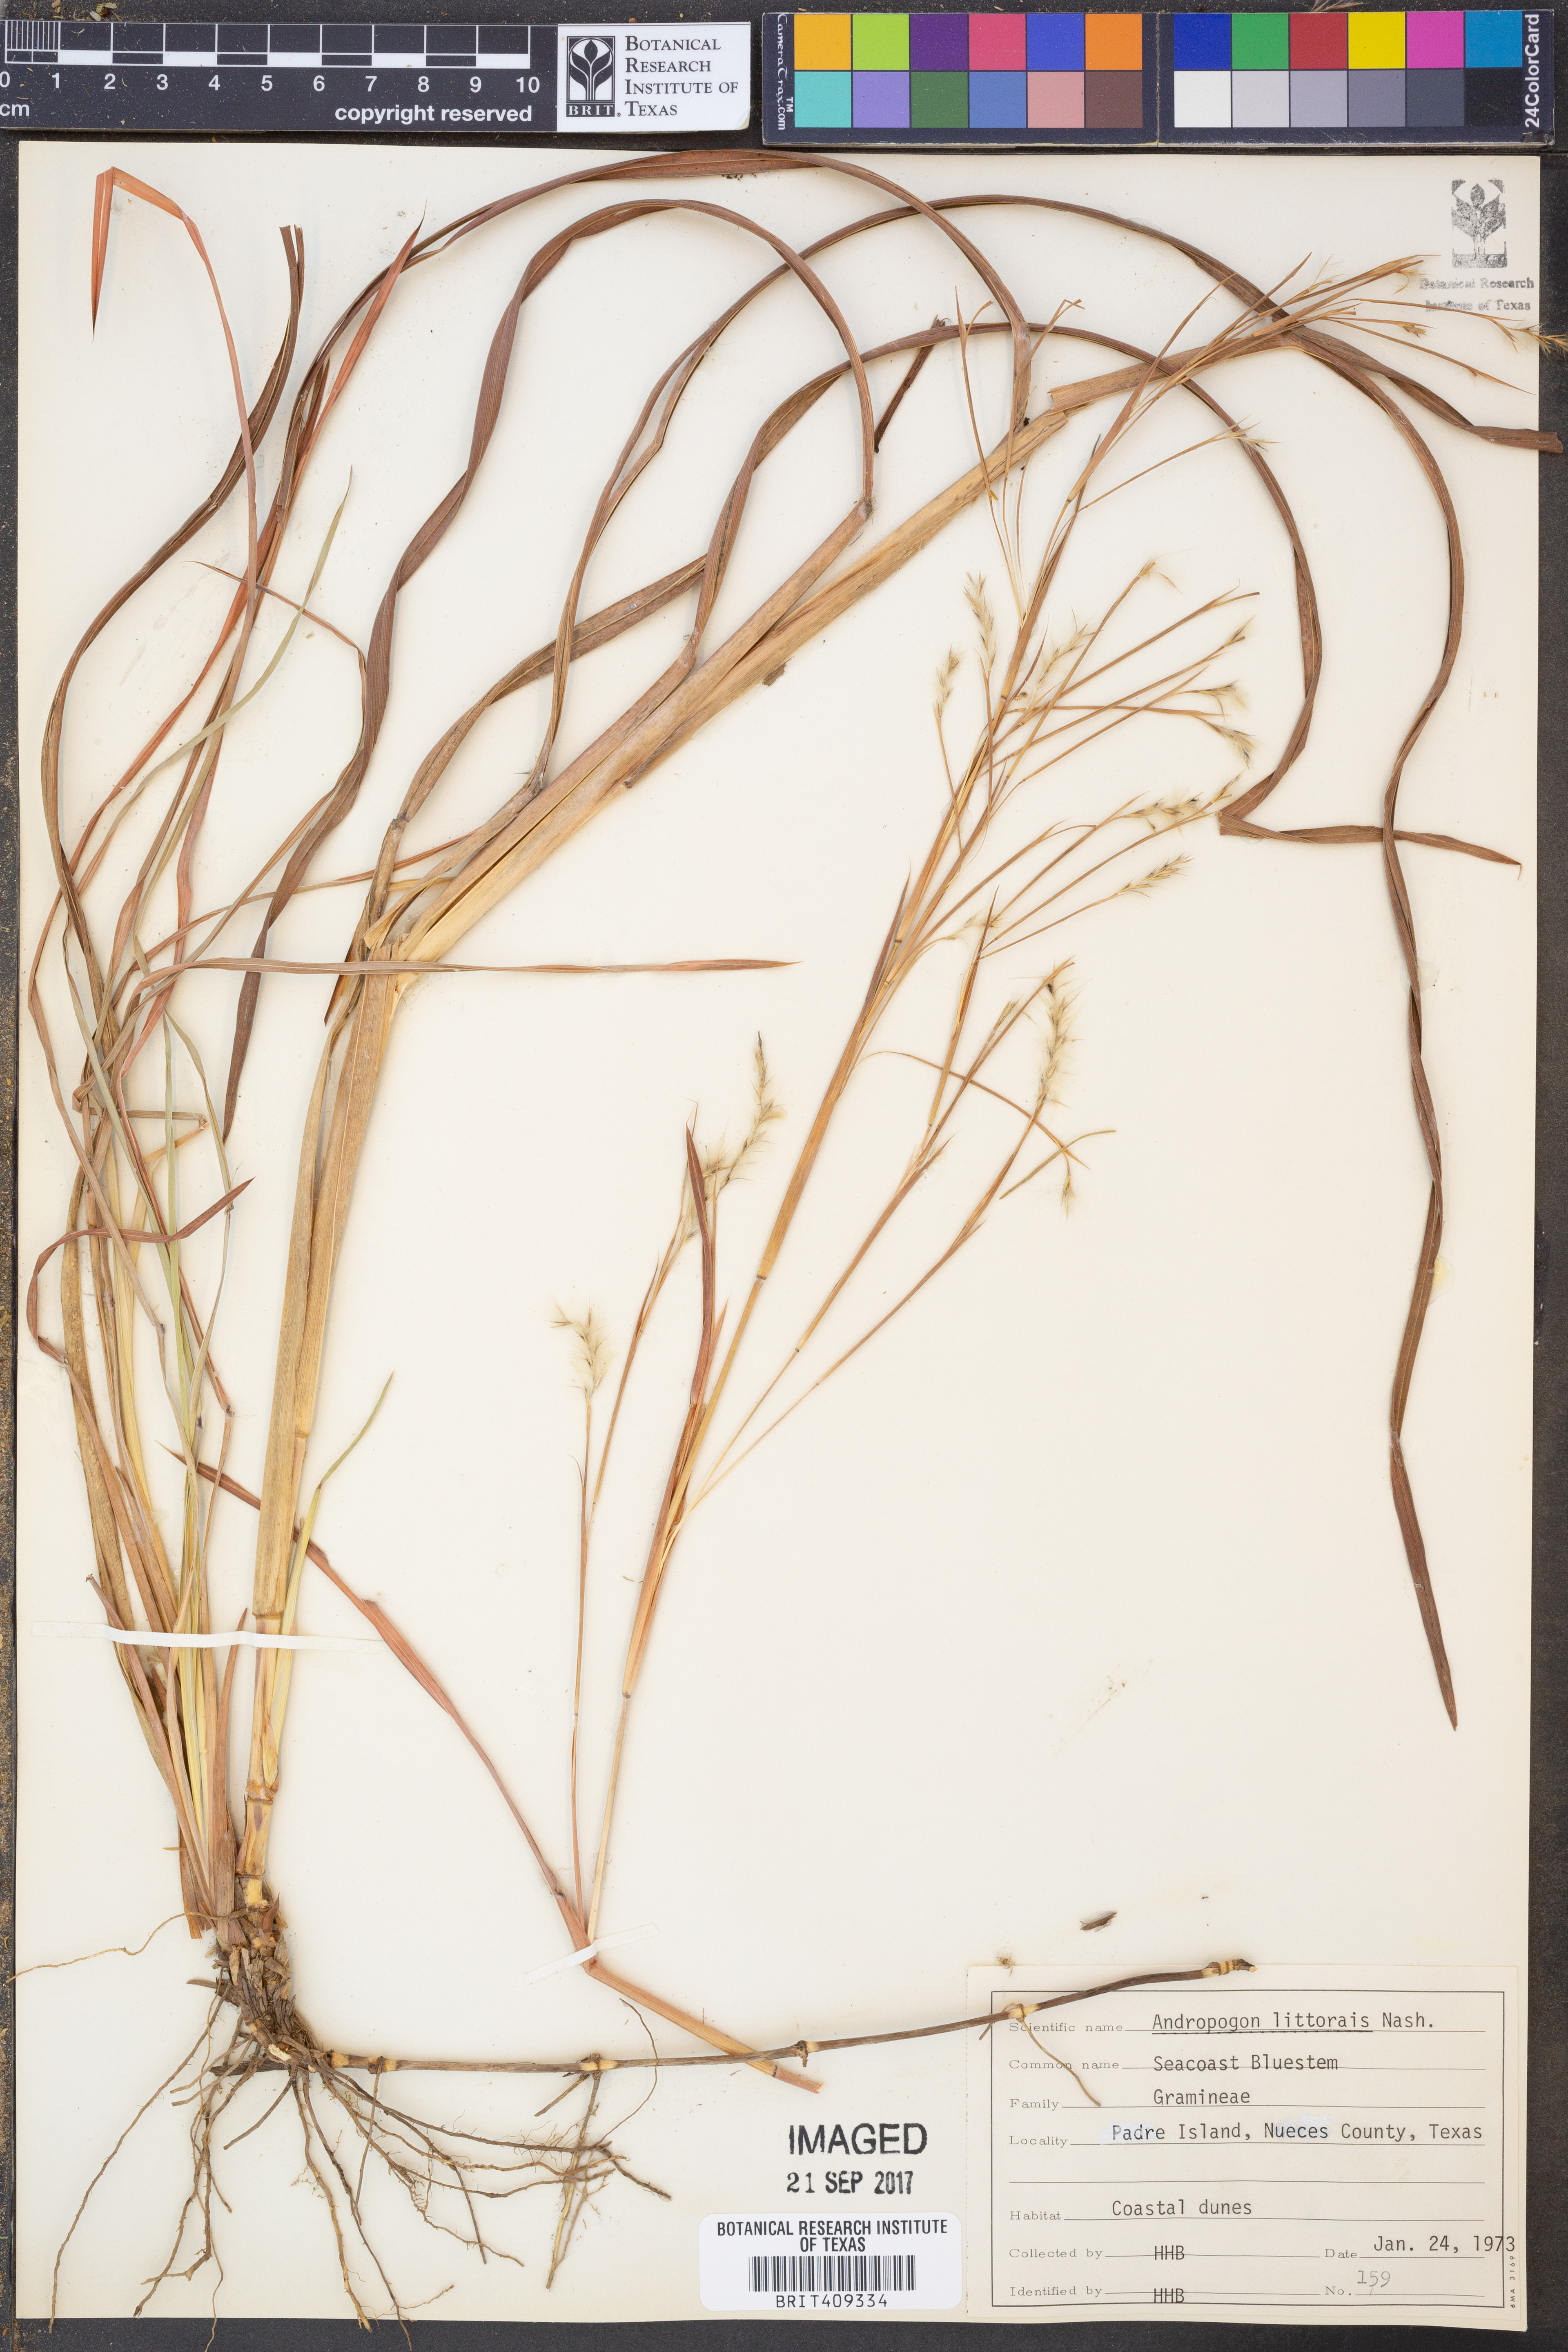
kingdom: Plantae
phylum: Tracheophyta
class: Liliopsida
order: Poales
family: Poaceae
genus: Schizachyrium
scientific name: Schizachyrium scoparium
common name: Little bluestem
